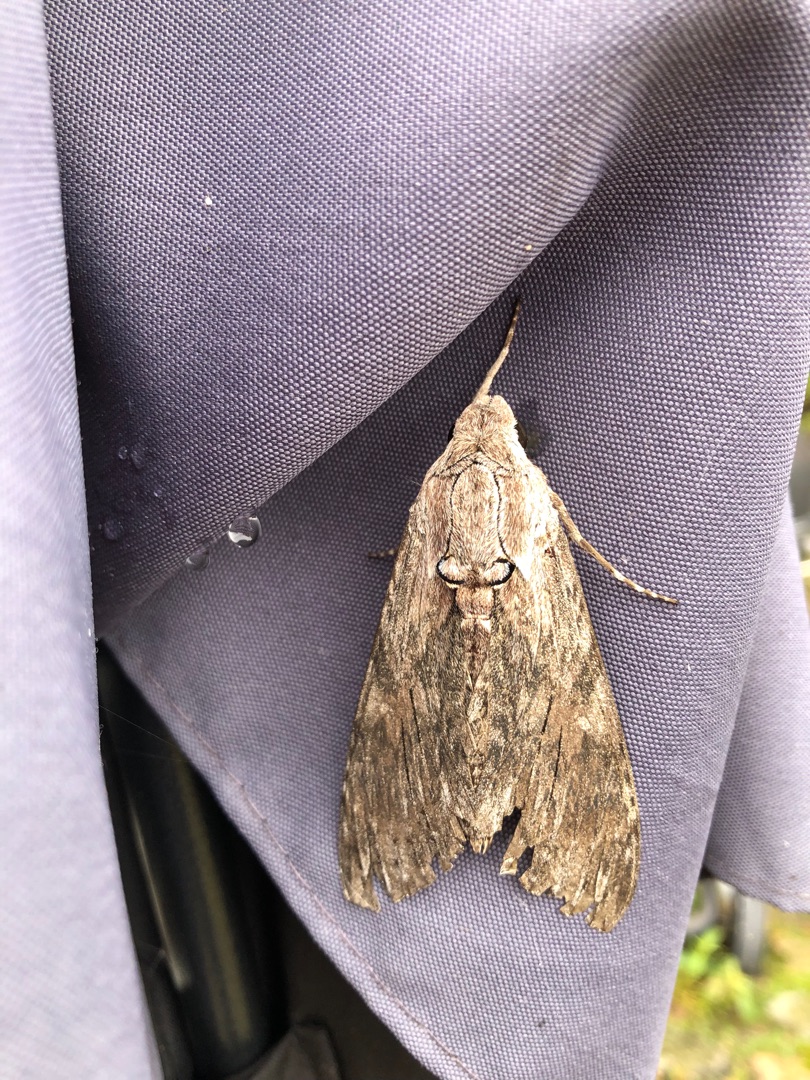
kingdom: Animalia
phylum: Arthropoda
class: Insecta
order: Lepidoptera
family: Sphingidae
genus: Agrius
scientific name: Agrius convolvuli
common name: Snerlesværmer
